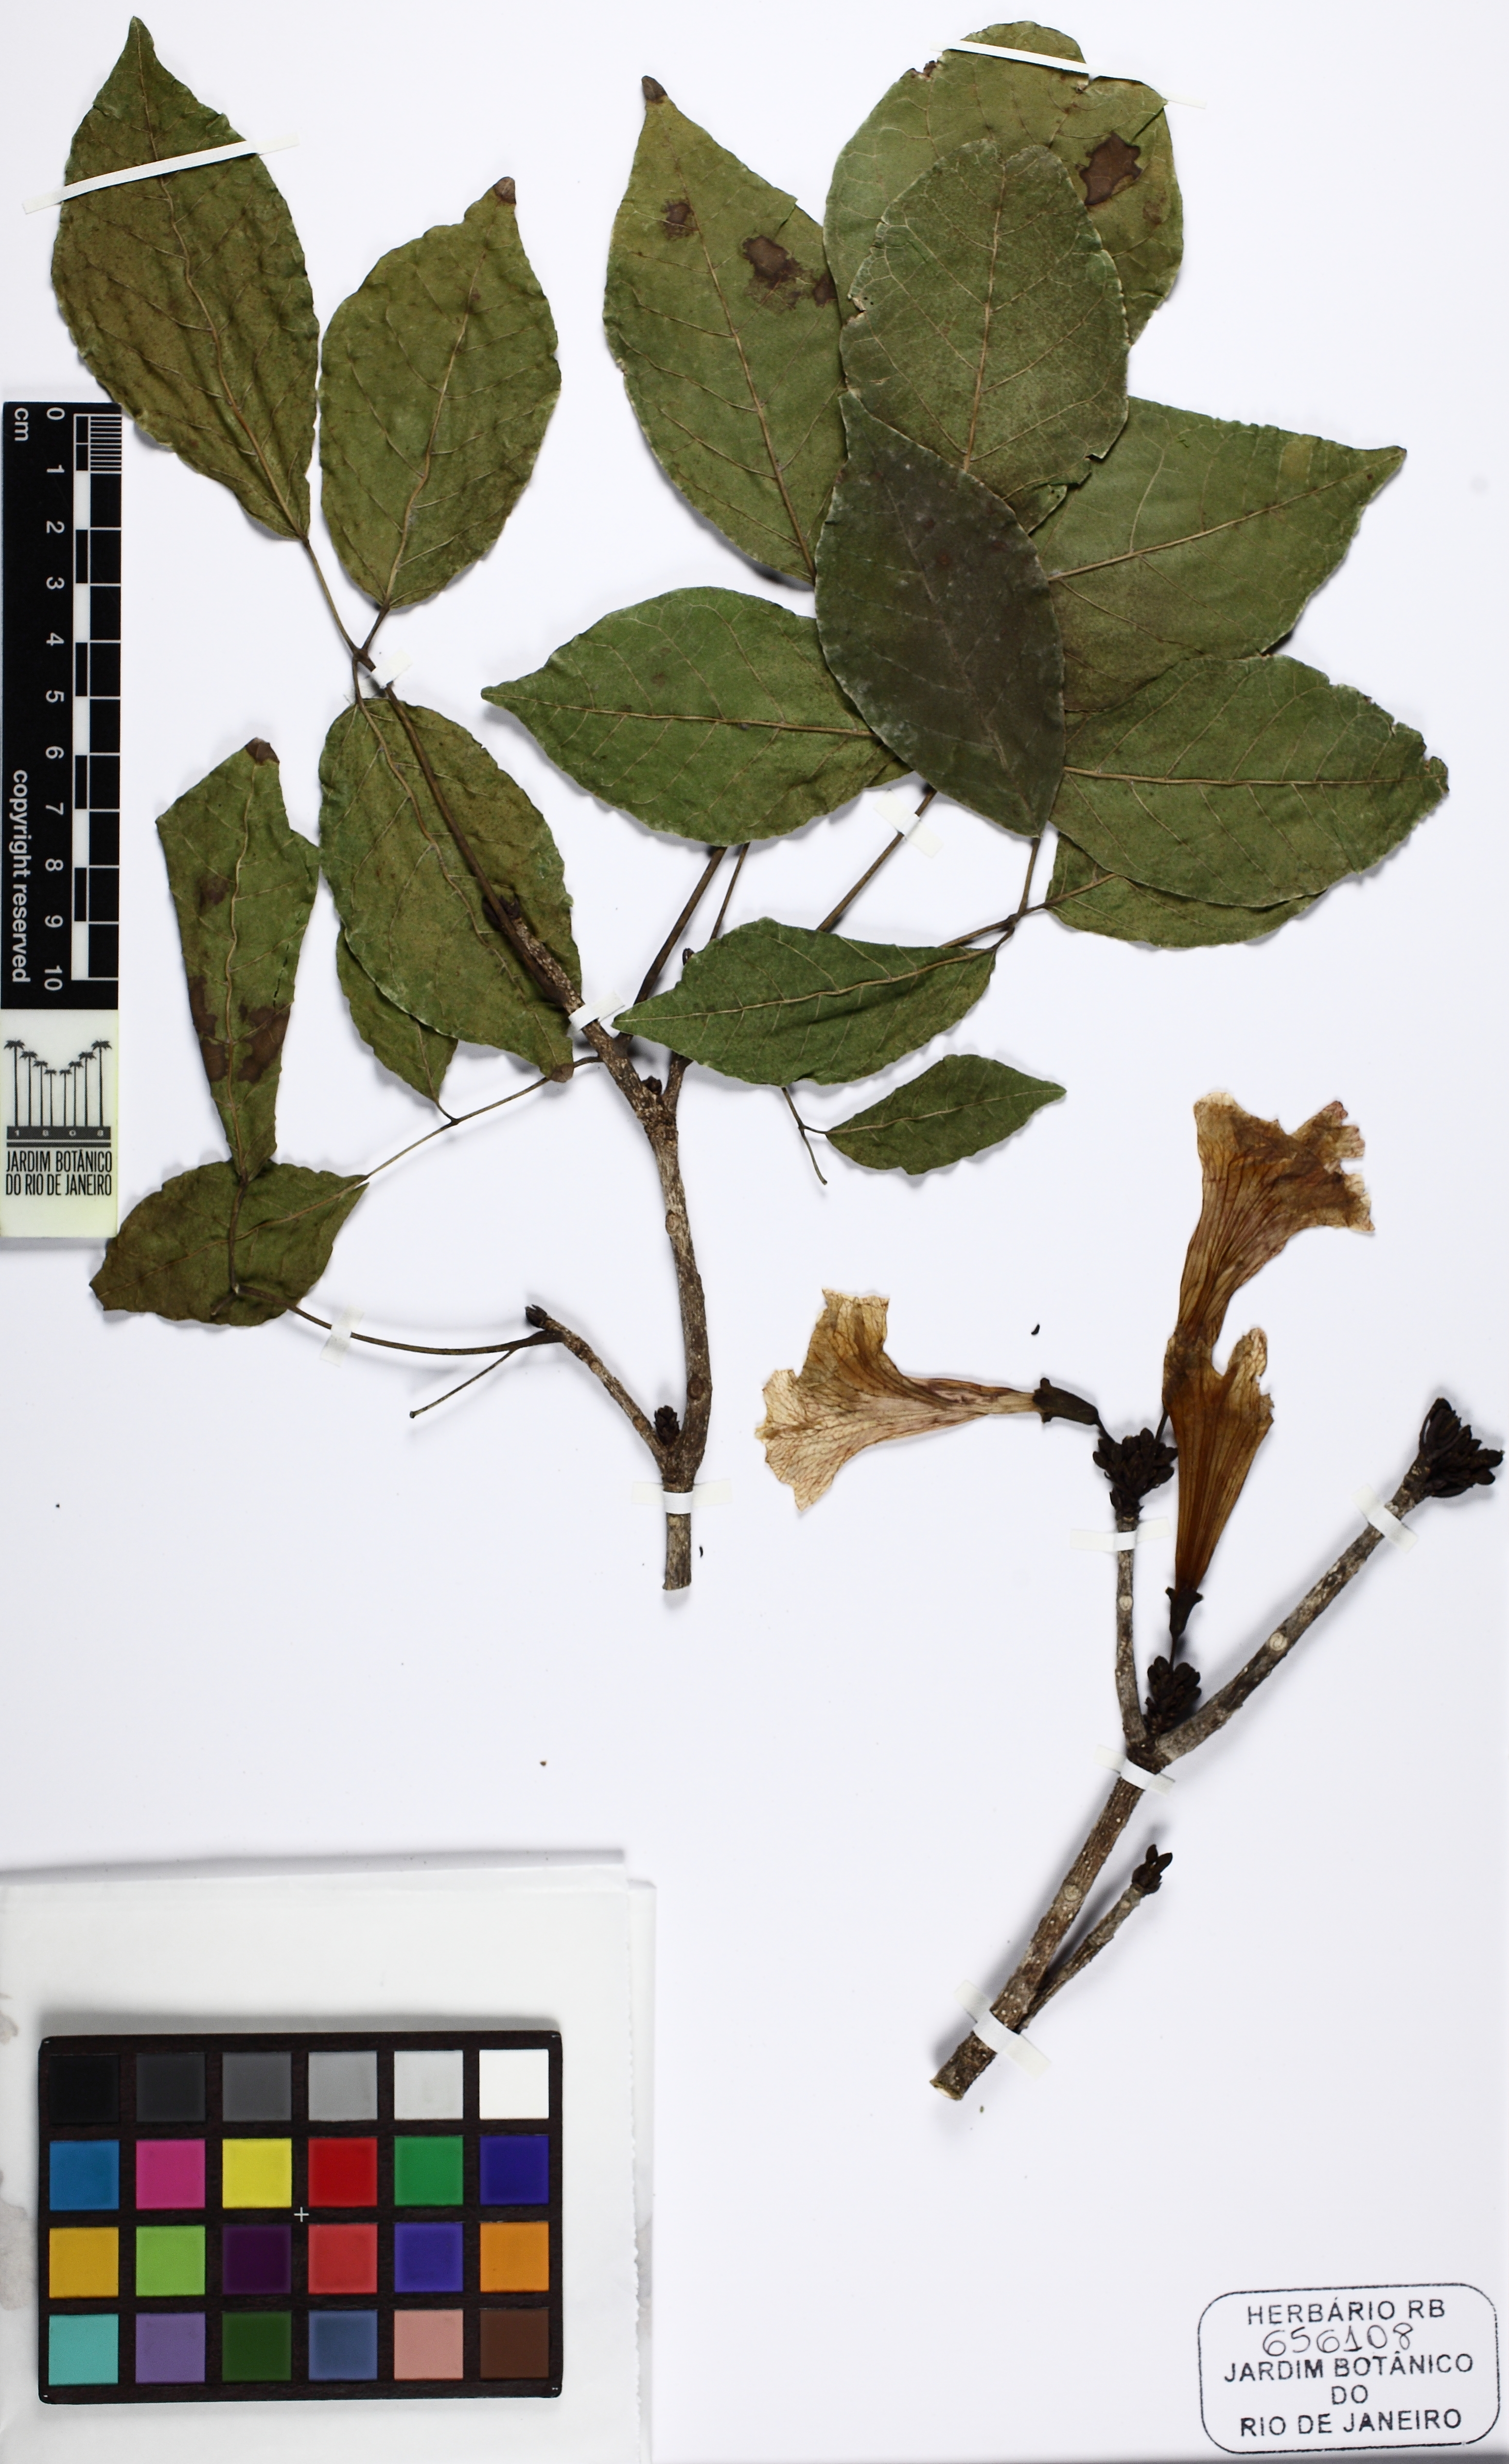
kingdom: Plantae
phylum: Tracheophyta
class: Magnoliopsida
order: Lamiales
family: Bignoniaceae
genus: Tabebuia
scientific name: Tabebuia roseoalba
